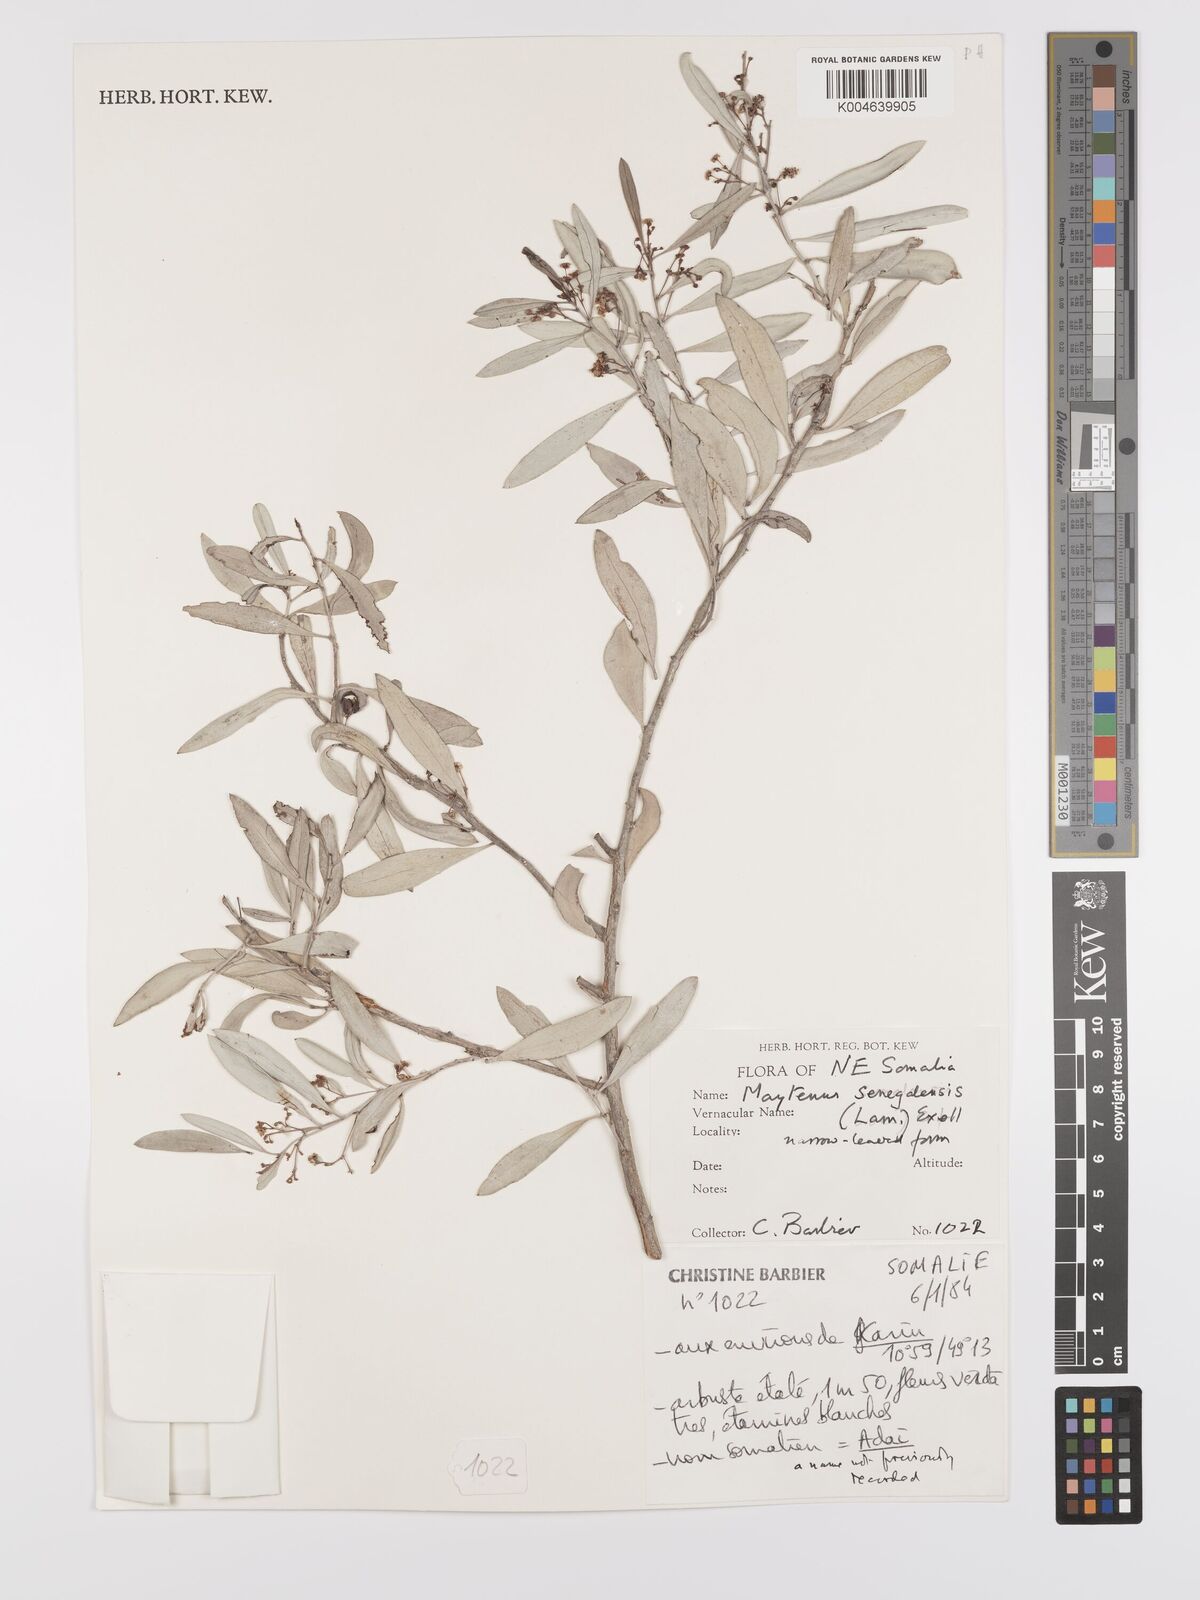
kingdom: Plantae
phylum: Tracheophyta
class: Magnoliopsida
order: Celastrales
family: Celastraceae
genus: Gymnosporia
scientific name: Gymnosporia senegalensis
